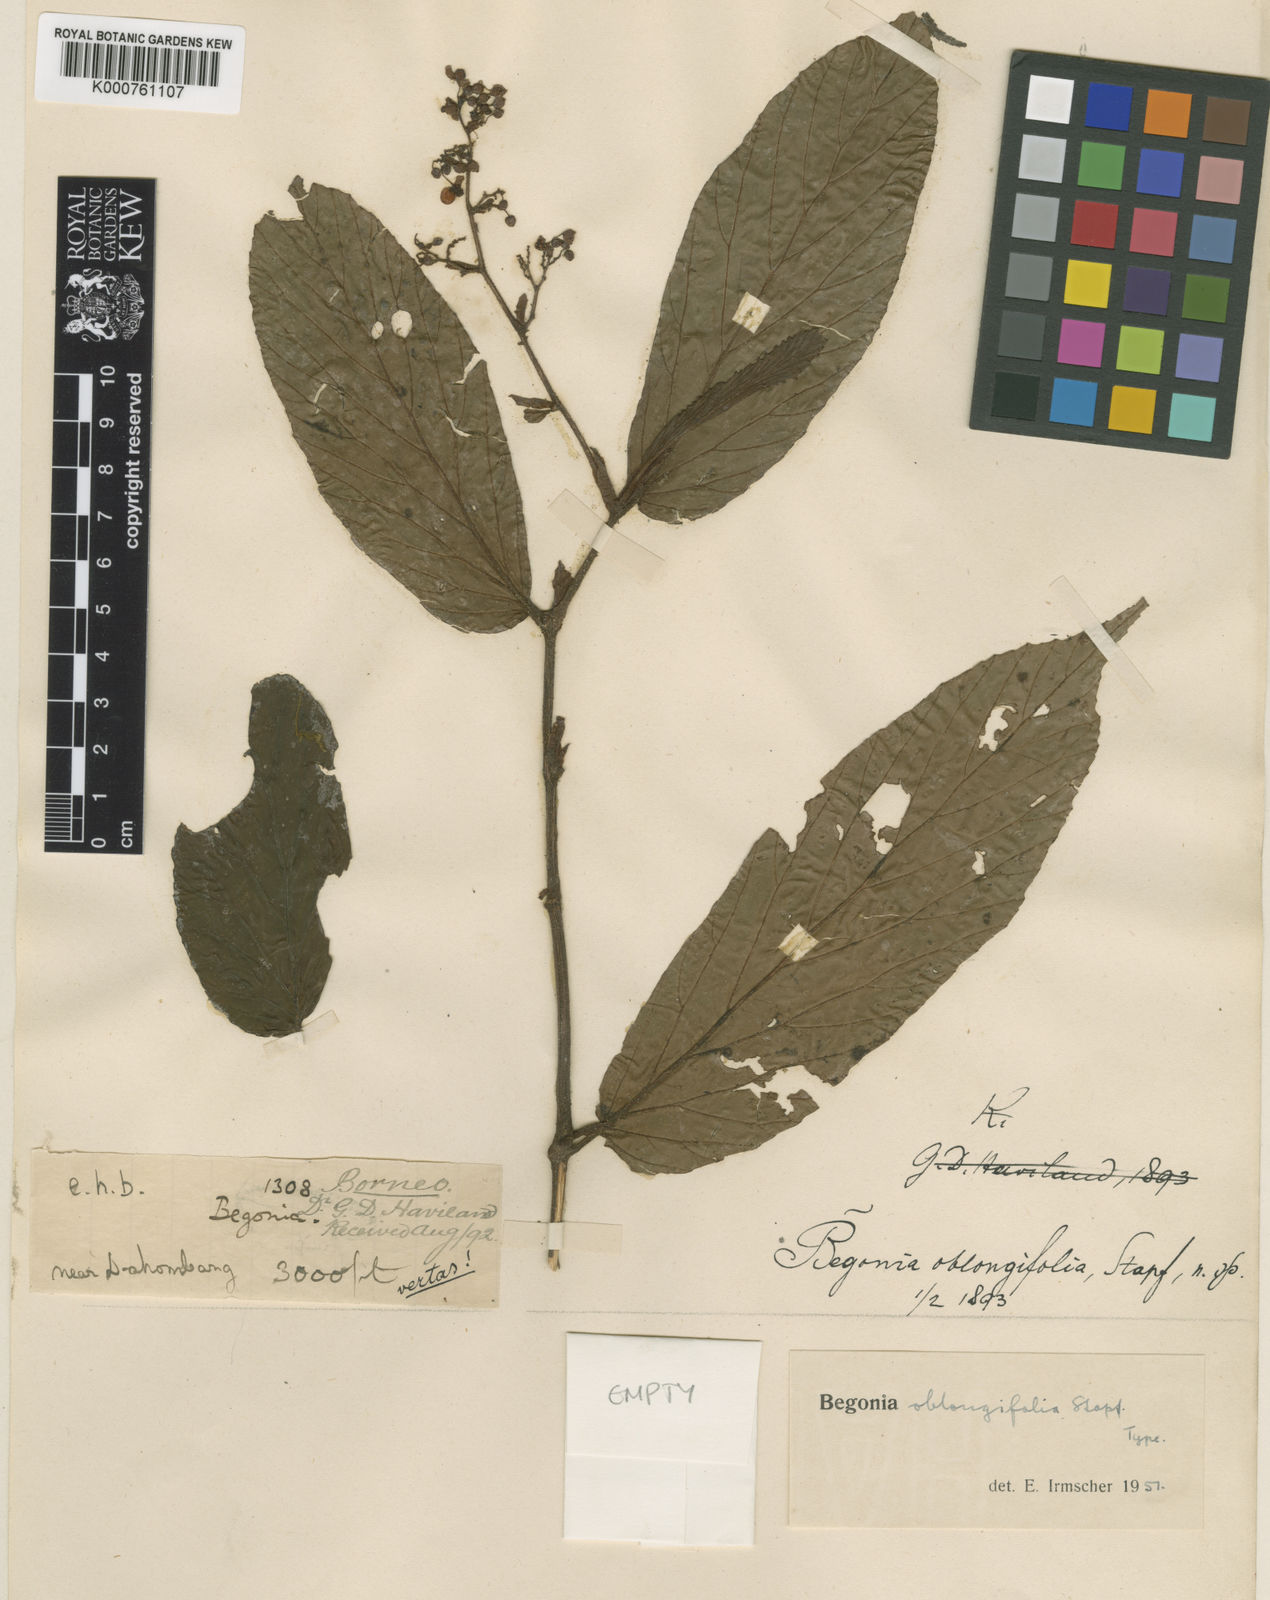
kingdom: Plantae
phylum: Tracheophyta
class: Magnoliopsida
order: Cucurbitales
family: Begoniaceae
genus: Begonia
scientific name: Begonia oblongifolia
